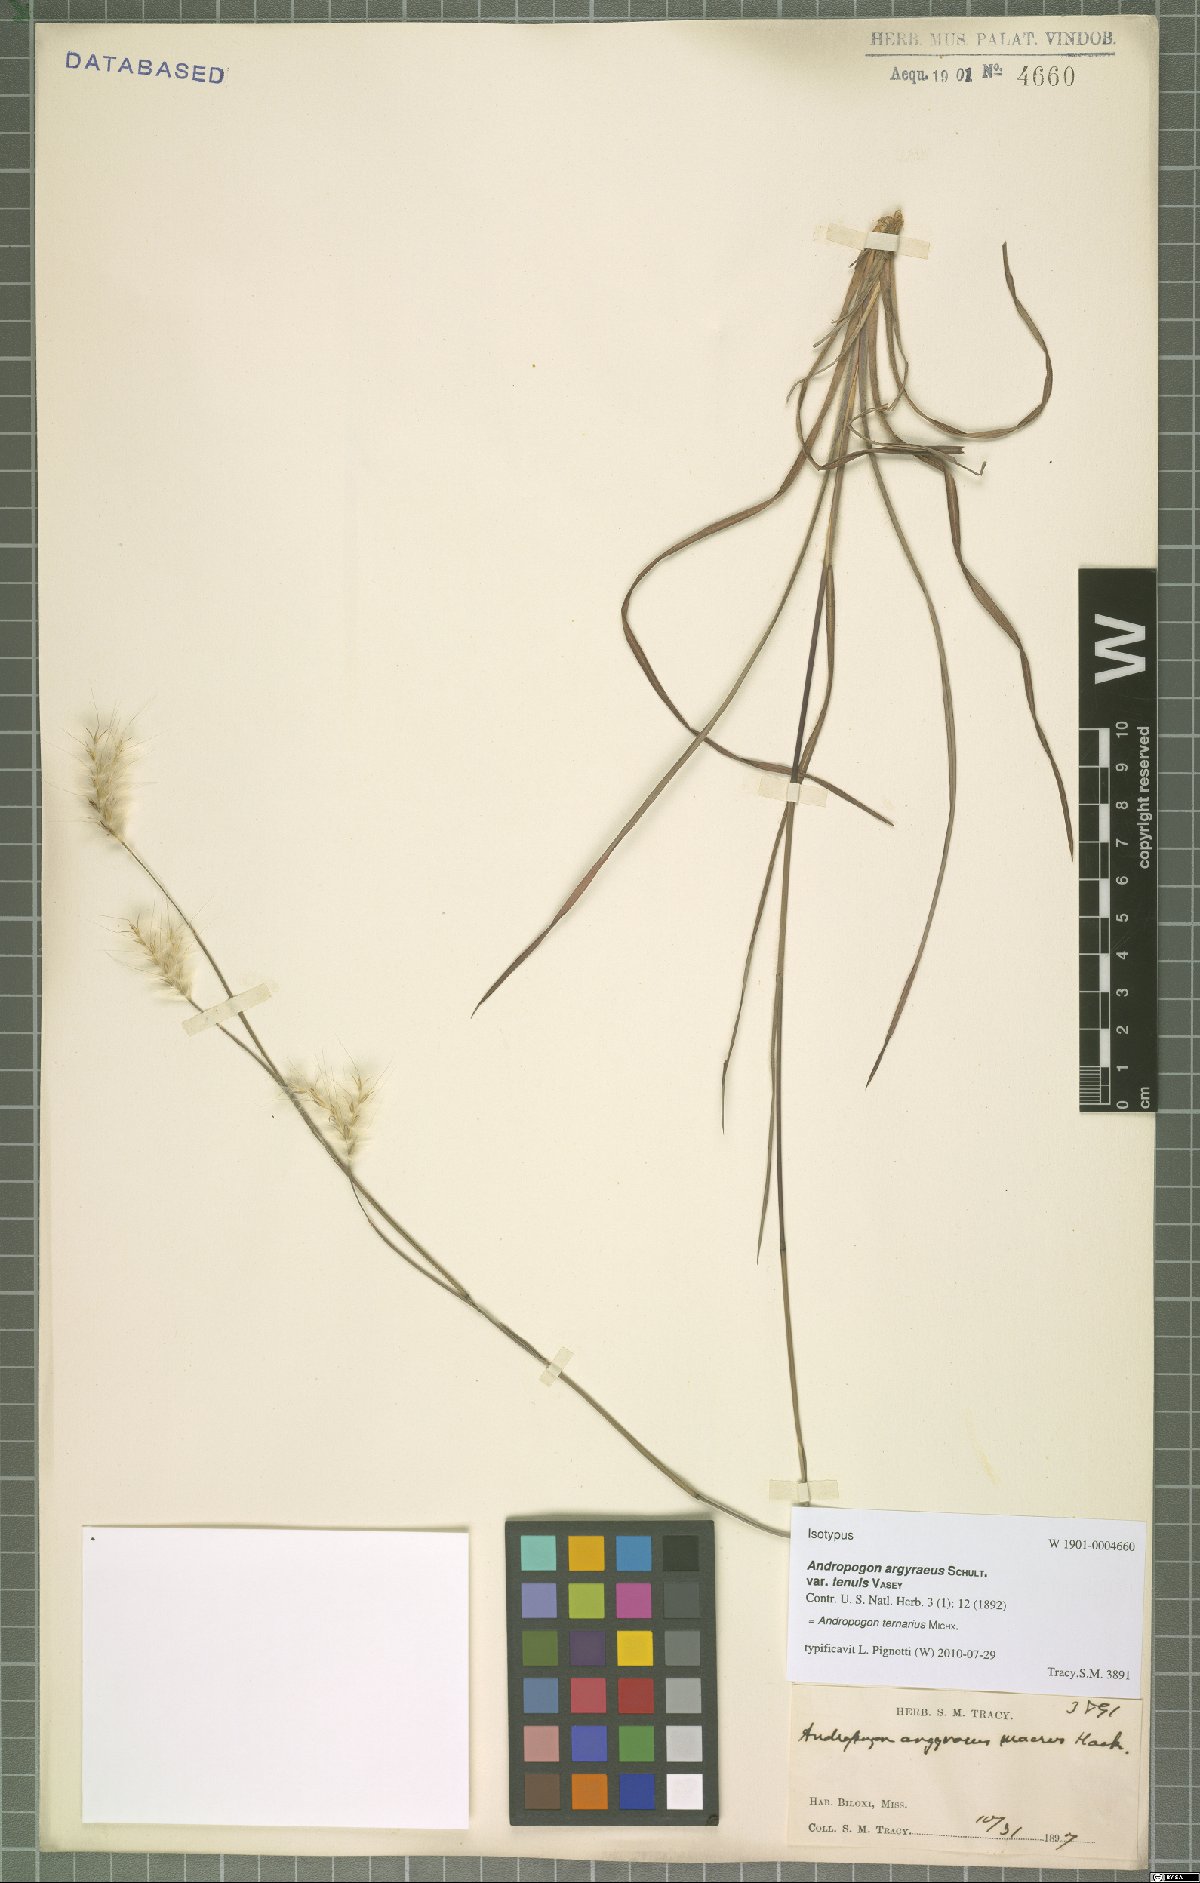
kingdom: Plantae
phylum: Tracheophyta
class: Liliopsida
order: Poales
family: Poaceae
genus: Andropogon
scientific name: Andropogon ternarius
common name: Split bluestem
